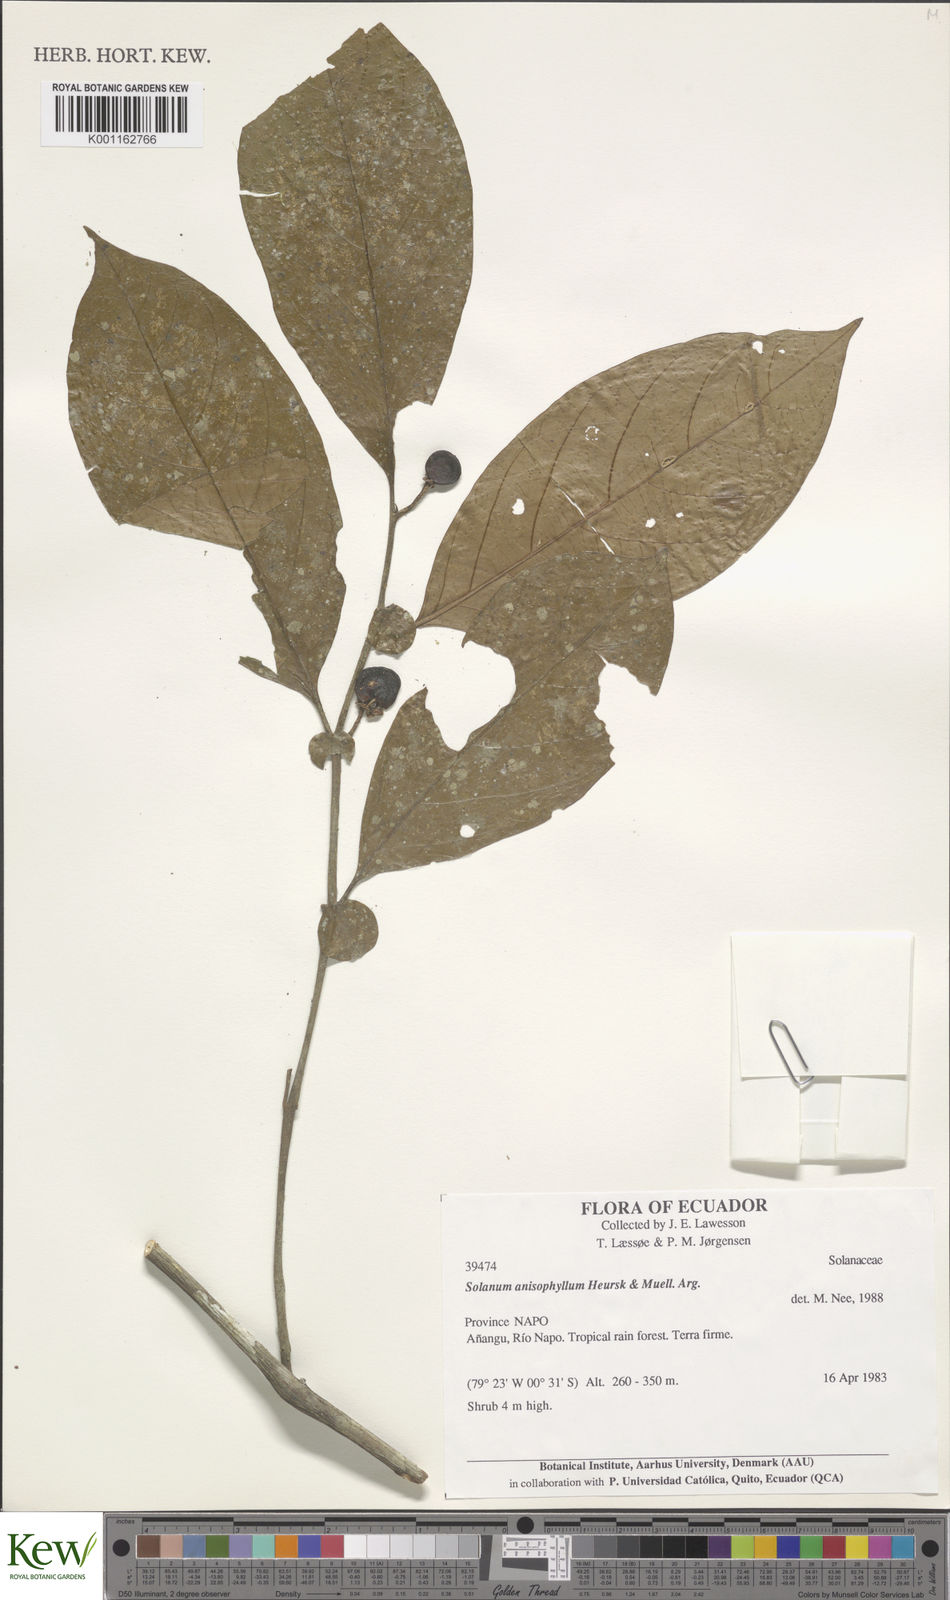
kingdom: Plantae
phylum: Tracheophyta
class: Magnoliopsida
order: Solanales
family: Solanaceae
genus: Solanum
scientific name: Solanum
